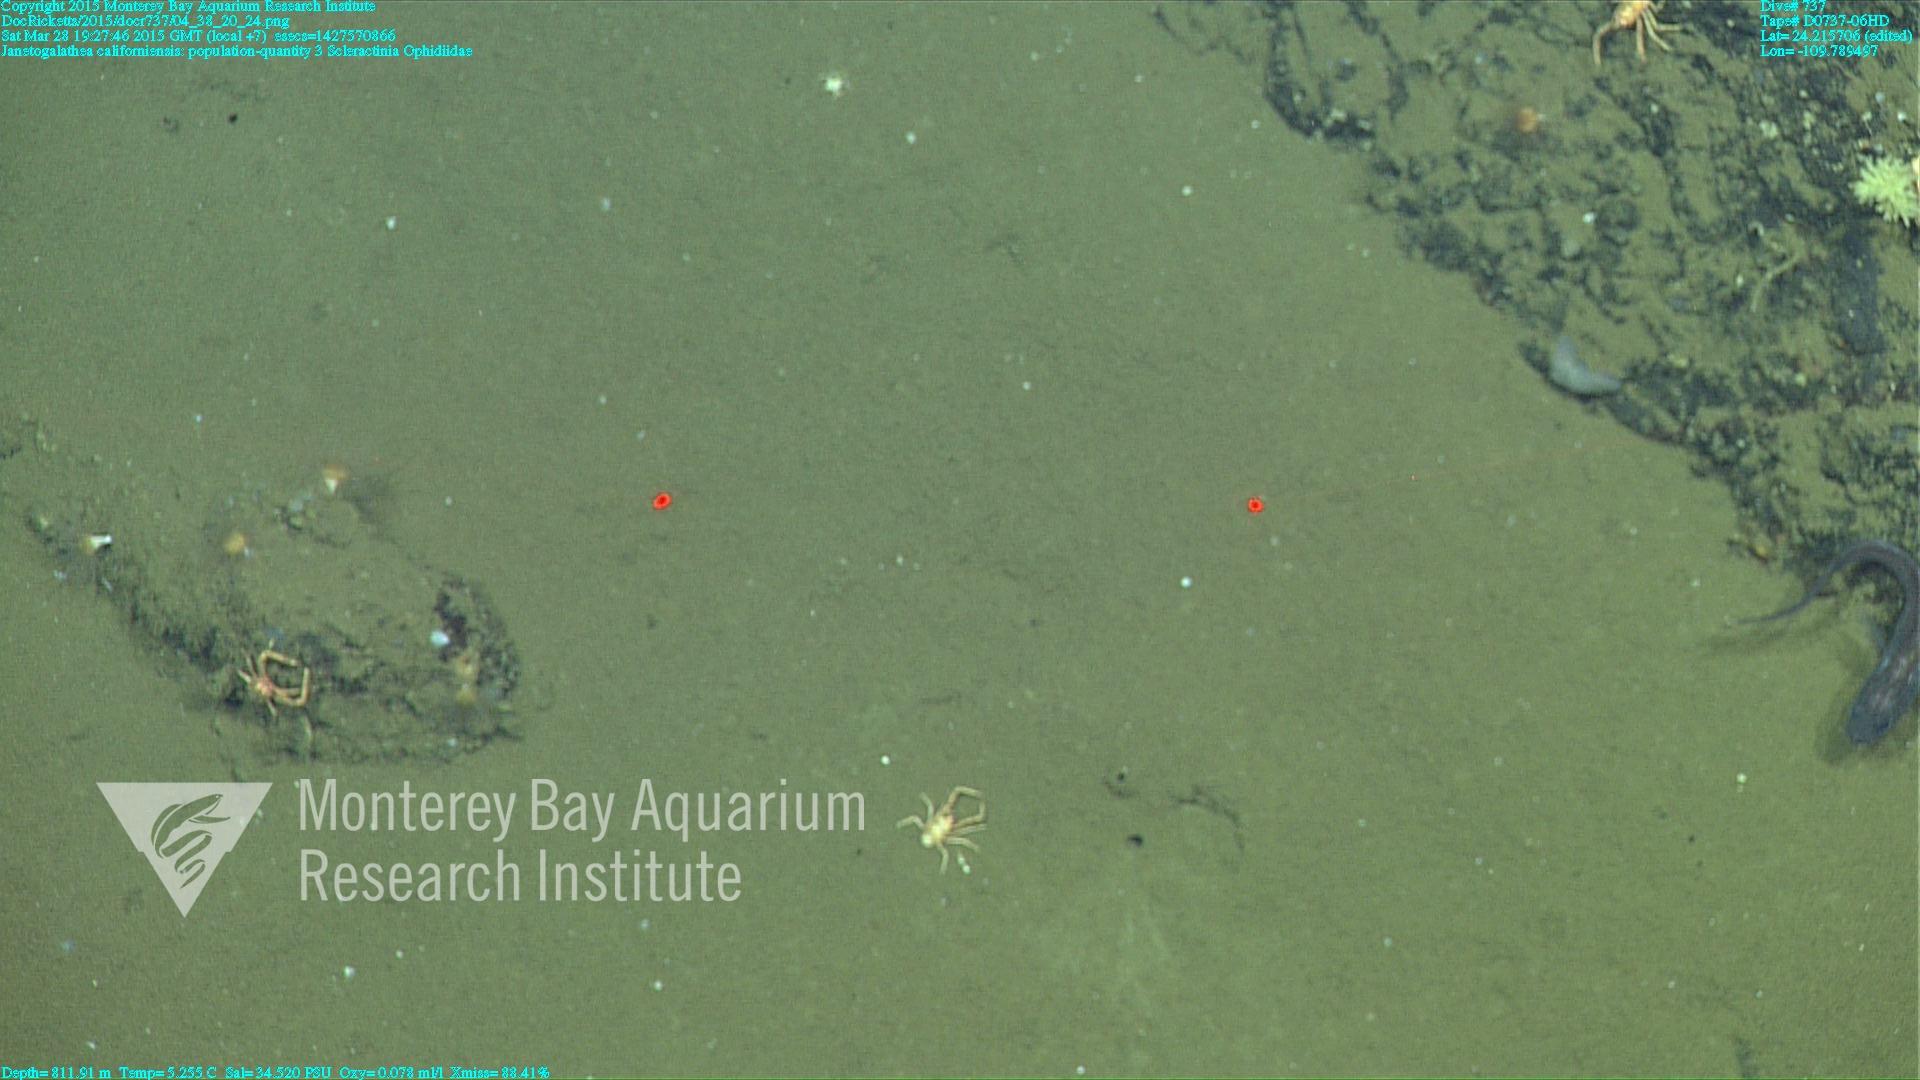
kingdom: Animalia
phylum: Cnidaria
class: Anthozoa
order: Scleractinia
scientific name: Scleractinia
